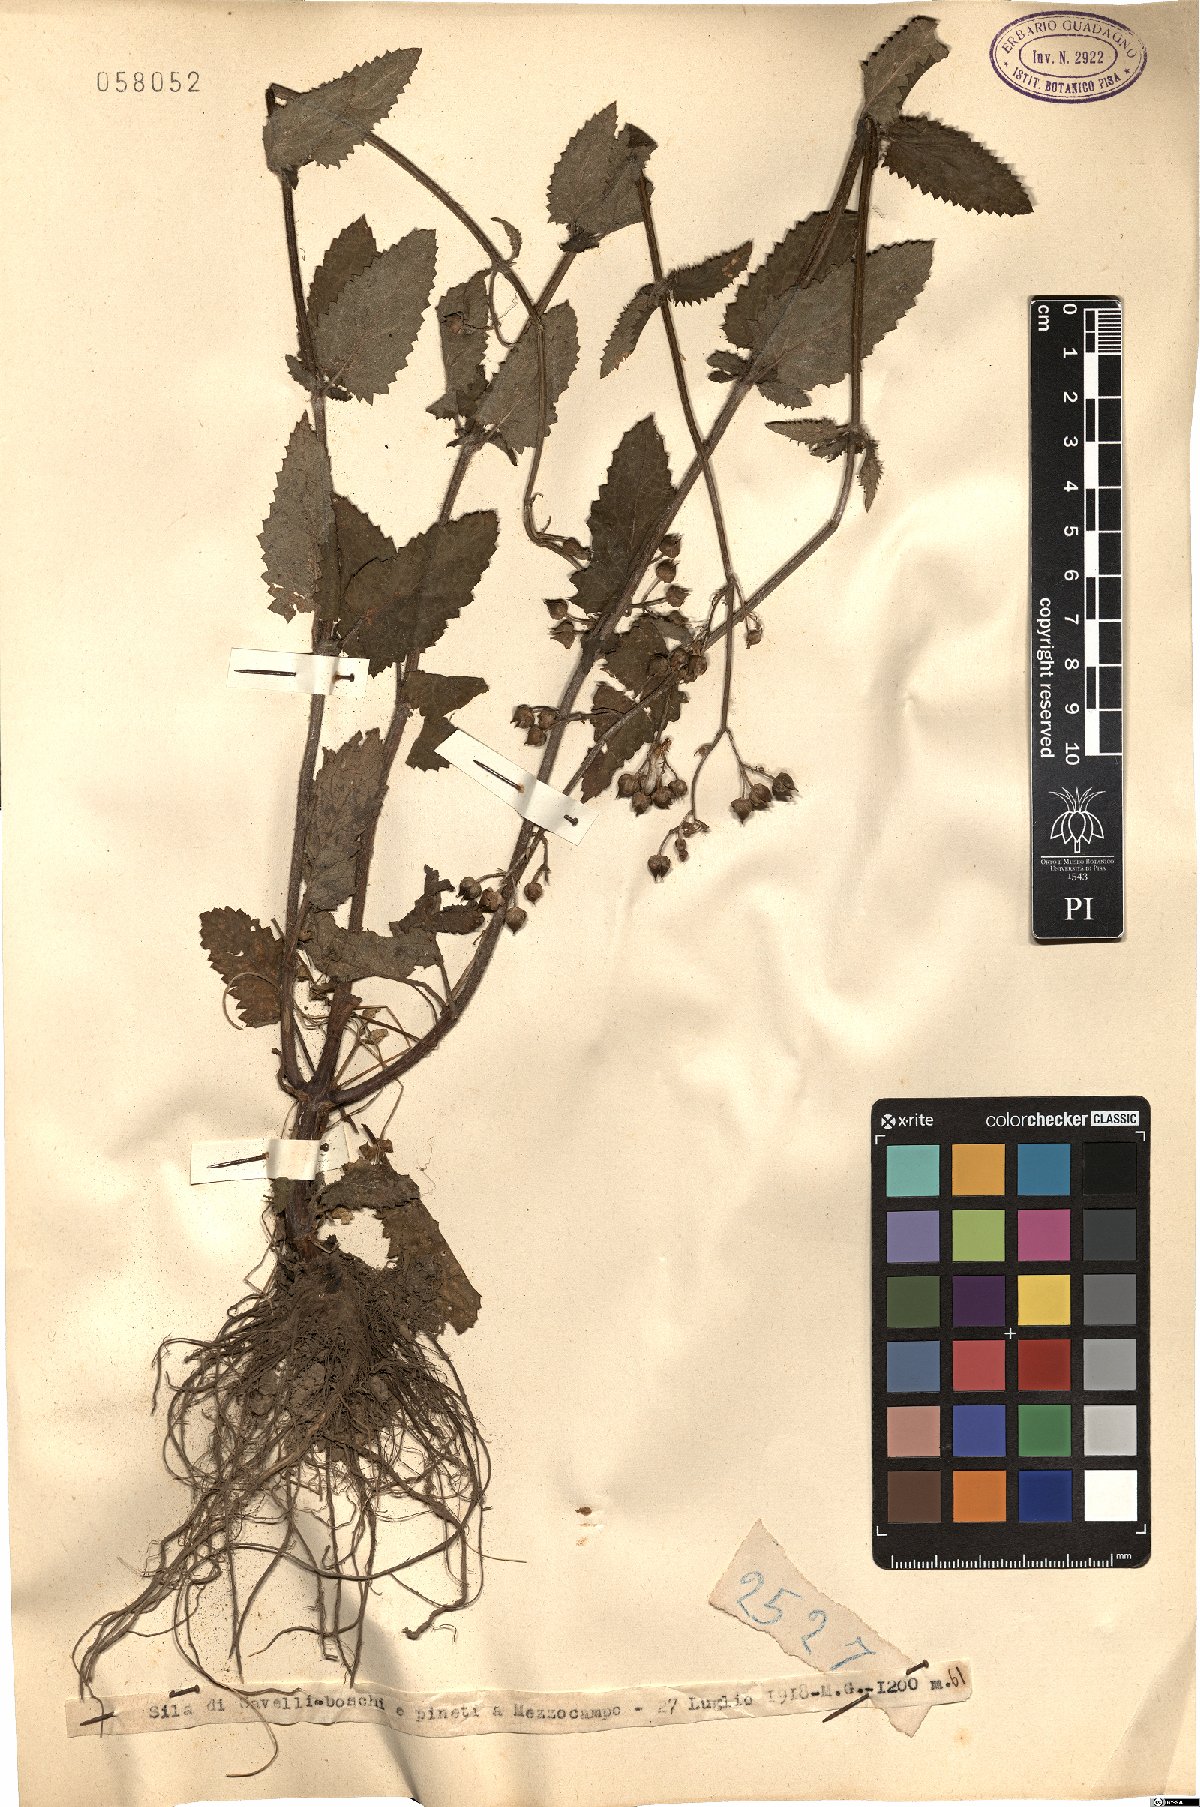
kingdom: Plantae
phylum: Tracheophyta
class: Magnoliopsida
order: Lamiales
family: Scrophulariaceae
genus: Scrophularia
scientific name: Scrophularia
